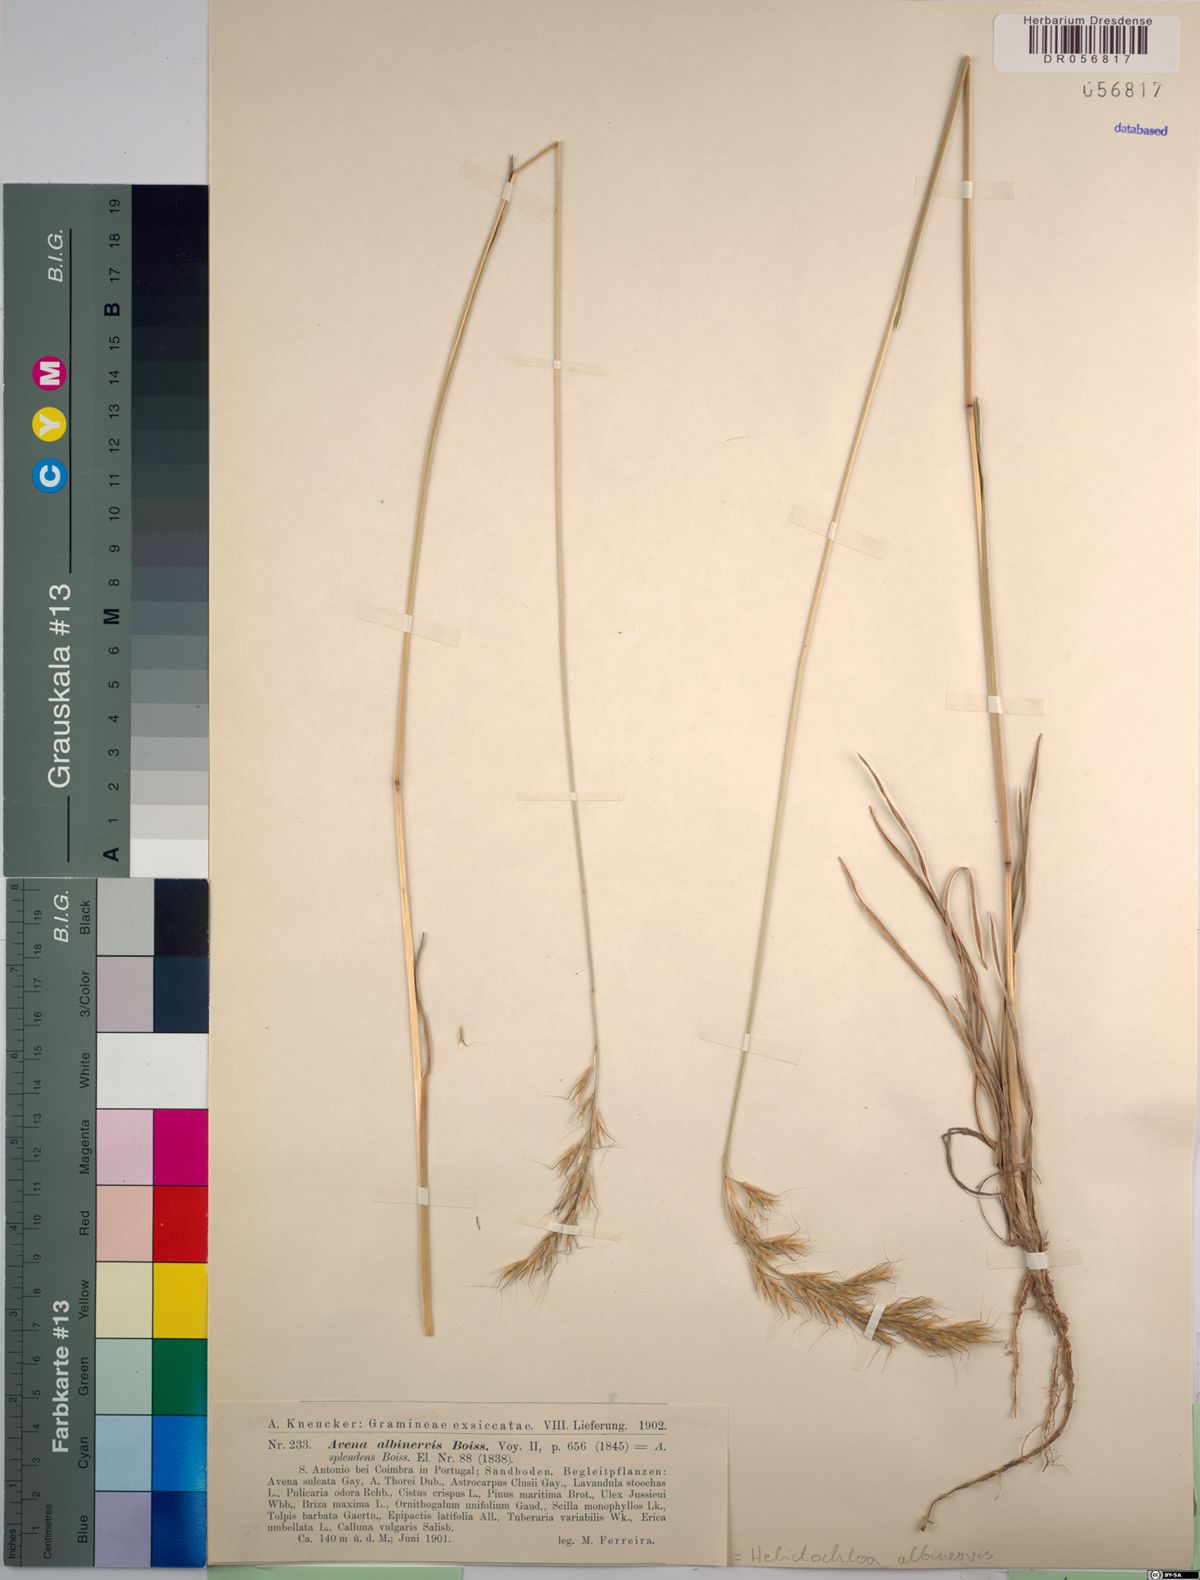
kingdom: Plantae
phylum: Tracheophyta
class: Liliopsida
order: Poales
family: Poaceae
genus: Helictochloa
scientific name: Helictochloa albinervis
